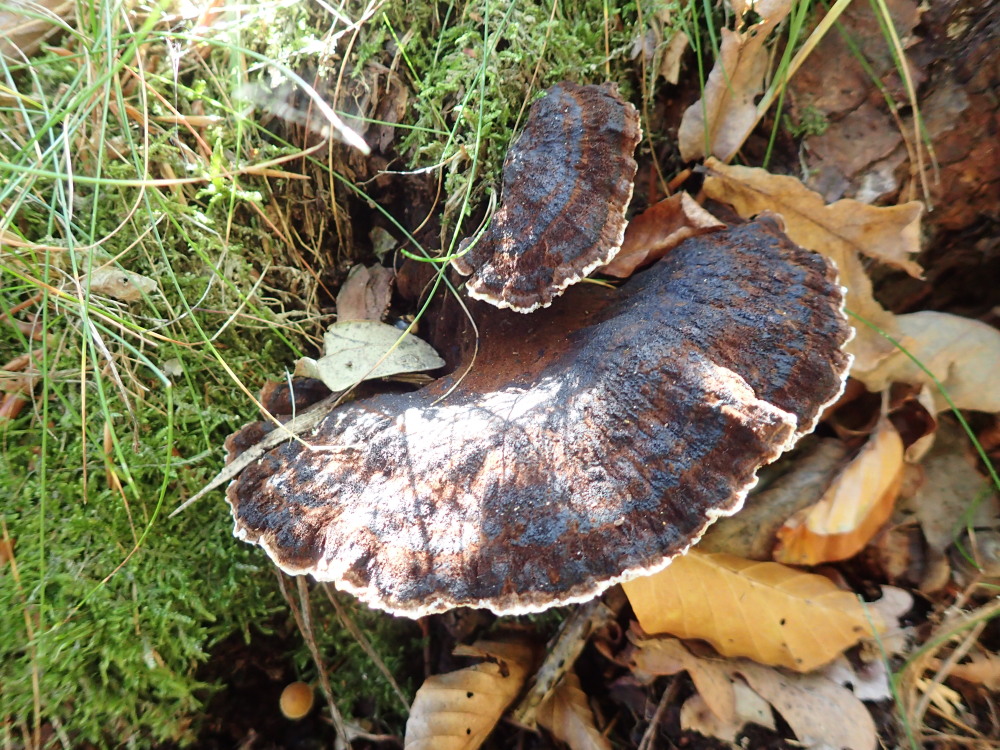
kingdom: Fungi
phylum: Basidiomycota
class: Agaricomycetes
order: Polyporales
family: Ischnodermataceae
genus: Ischnoderma
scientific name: Ischnoderma benzoinum
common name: gran-tjæreporesvamp
